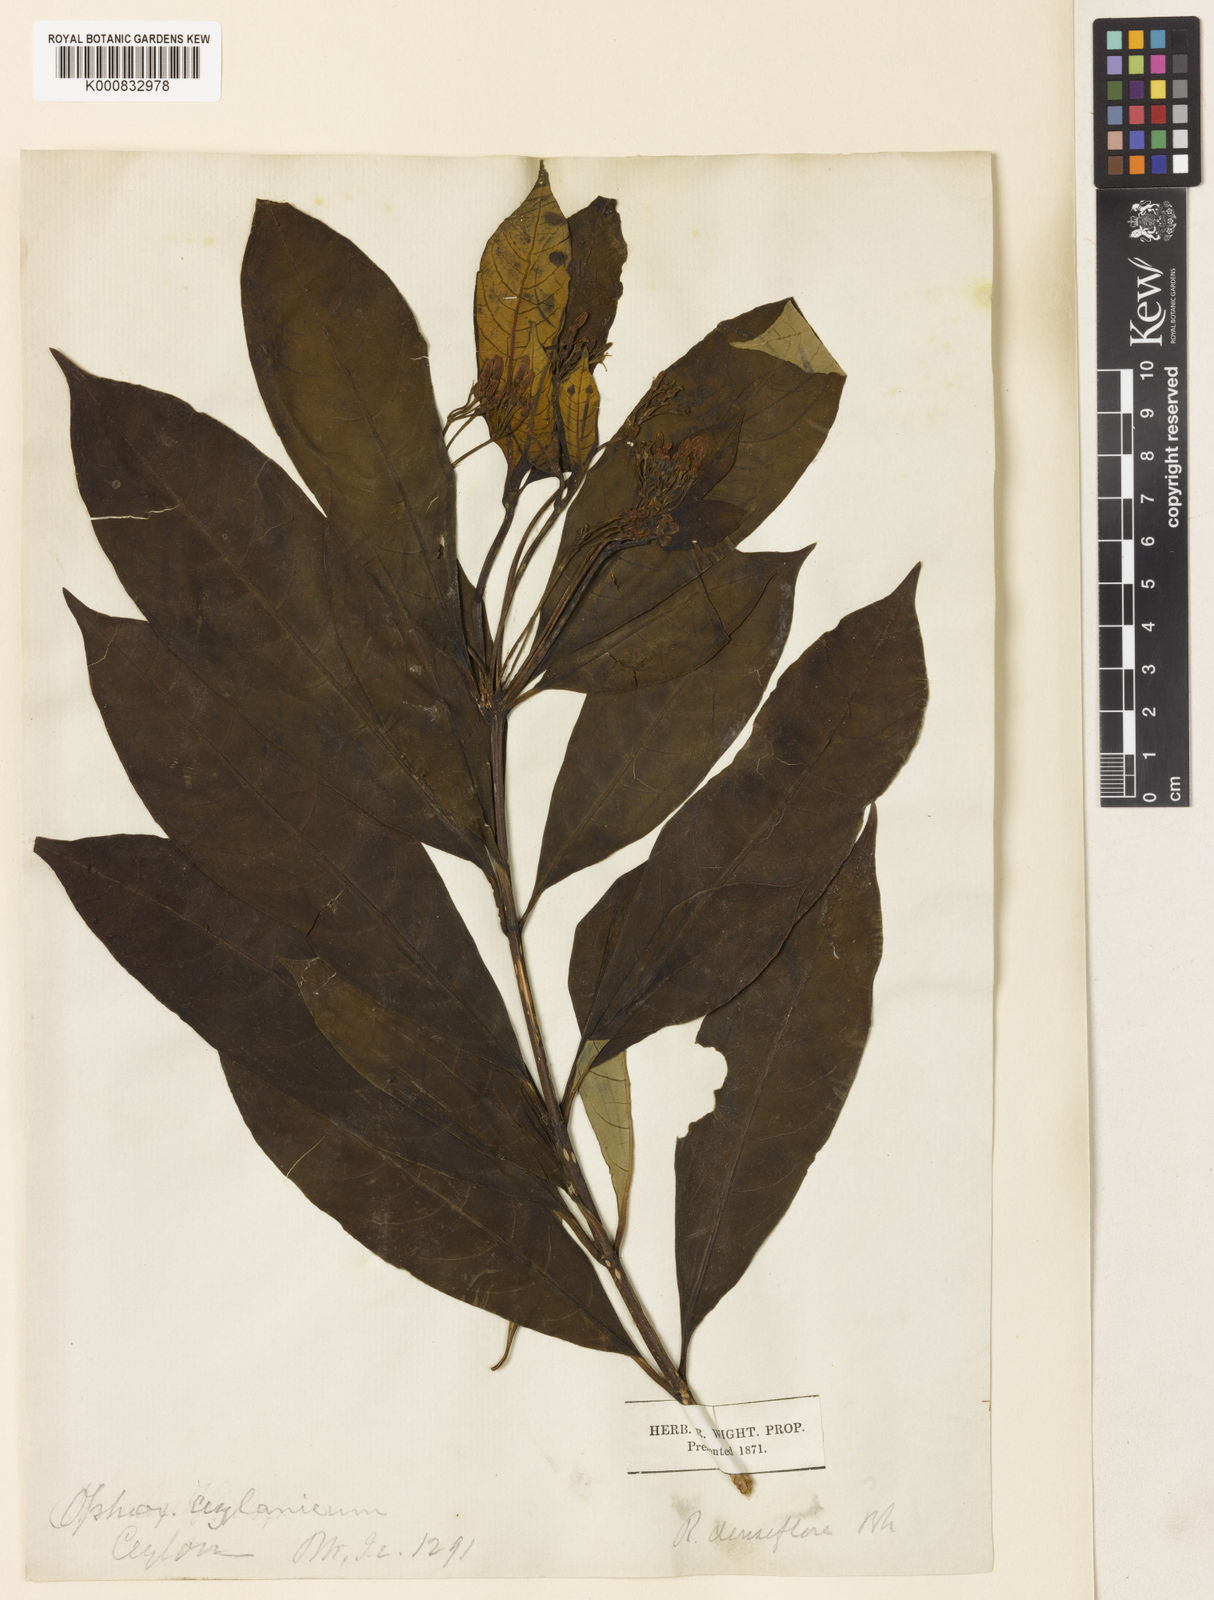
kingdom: Plantae
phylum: Tracheophyta
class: Magnoliopsida
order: Gentianales
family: Apocynaceae
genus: Rauvolfia
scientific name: Rauvolfia verticillata
